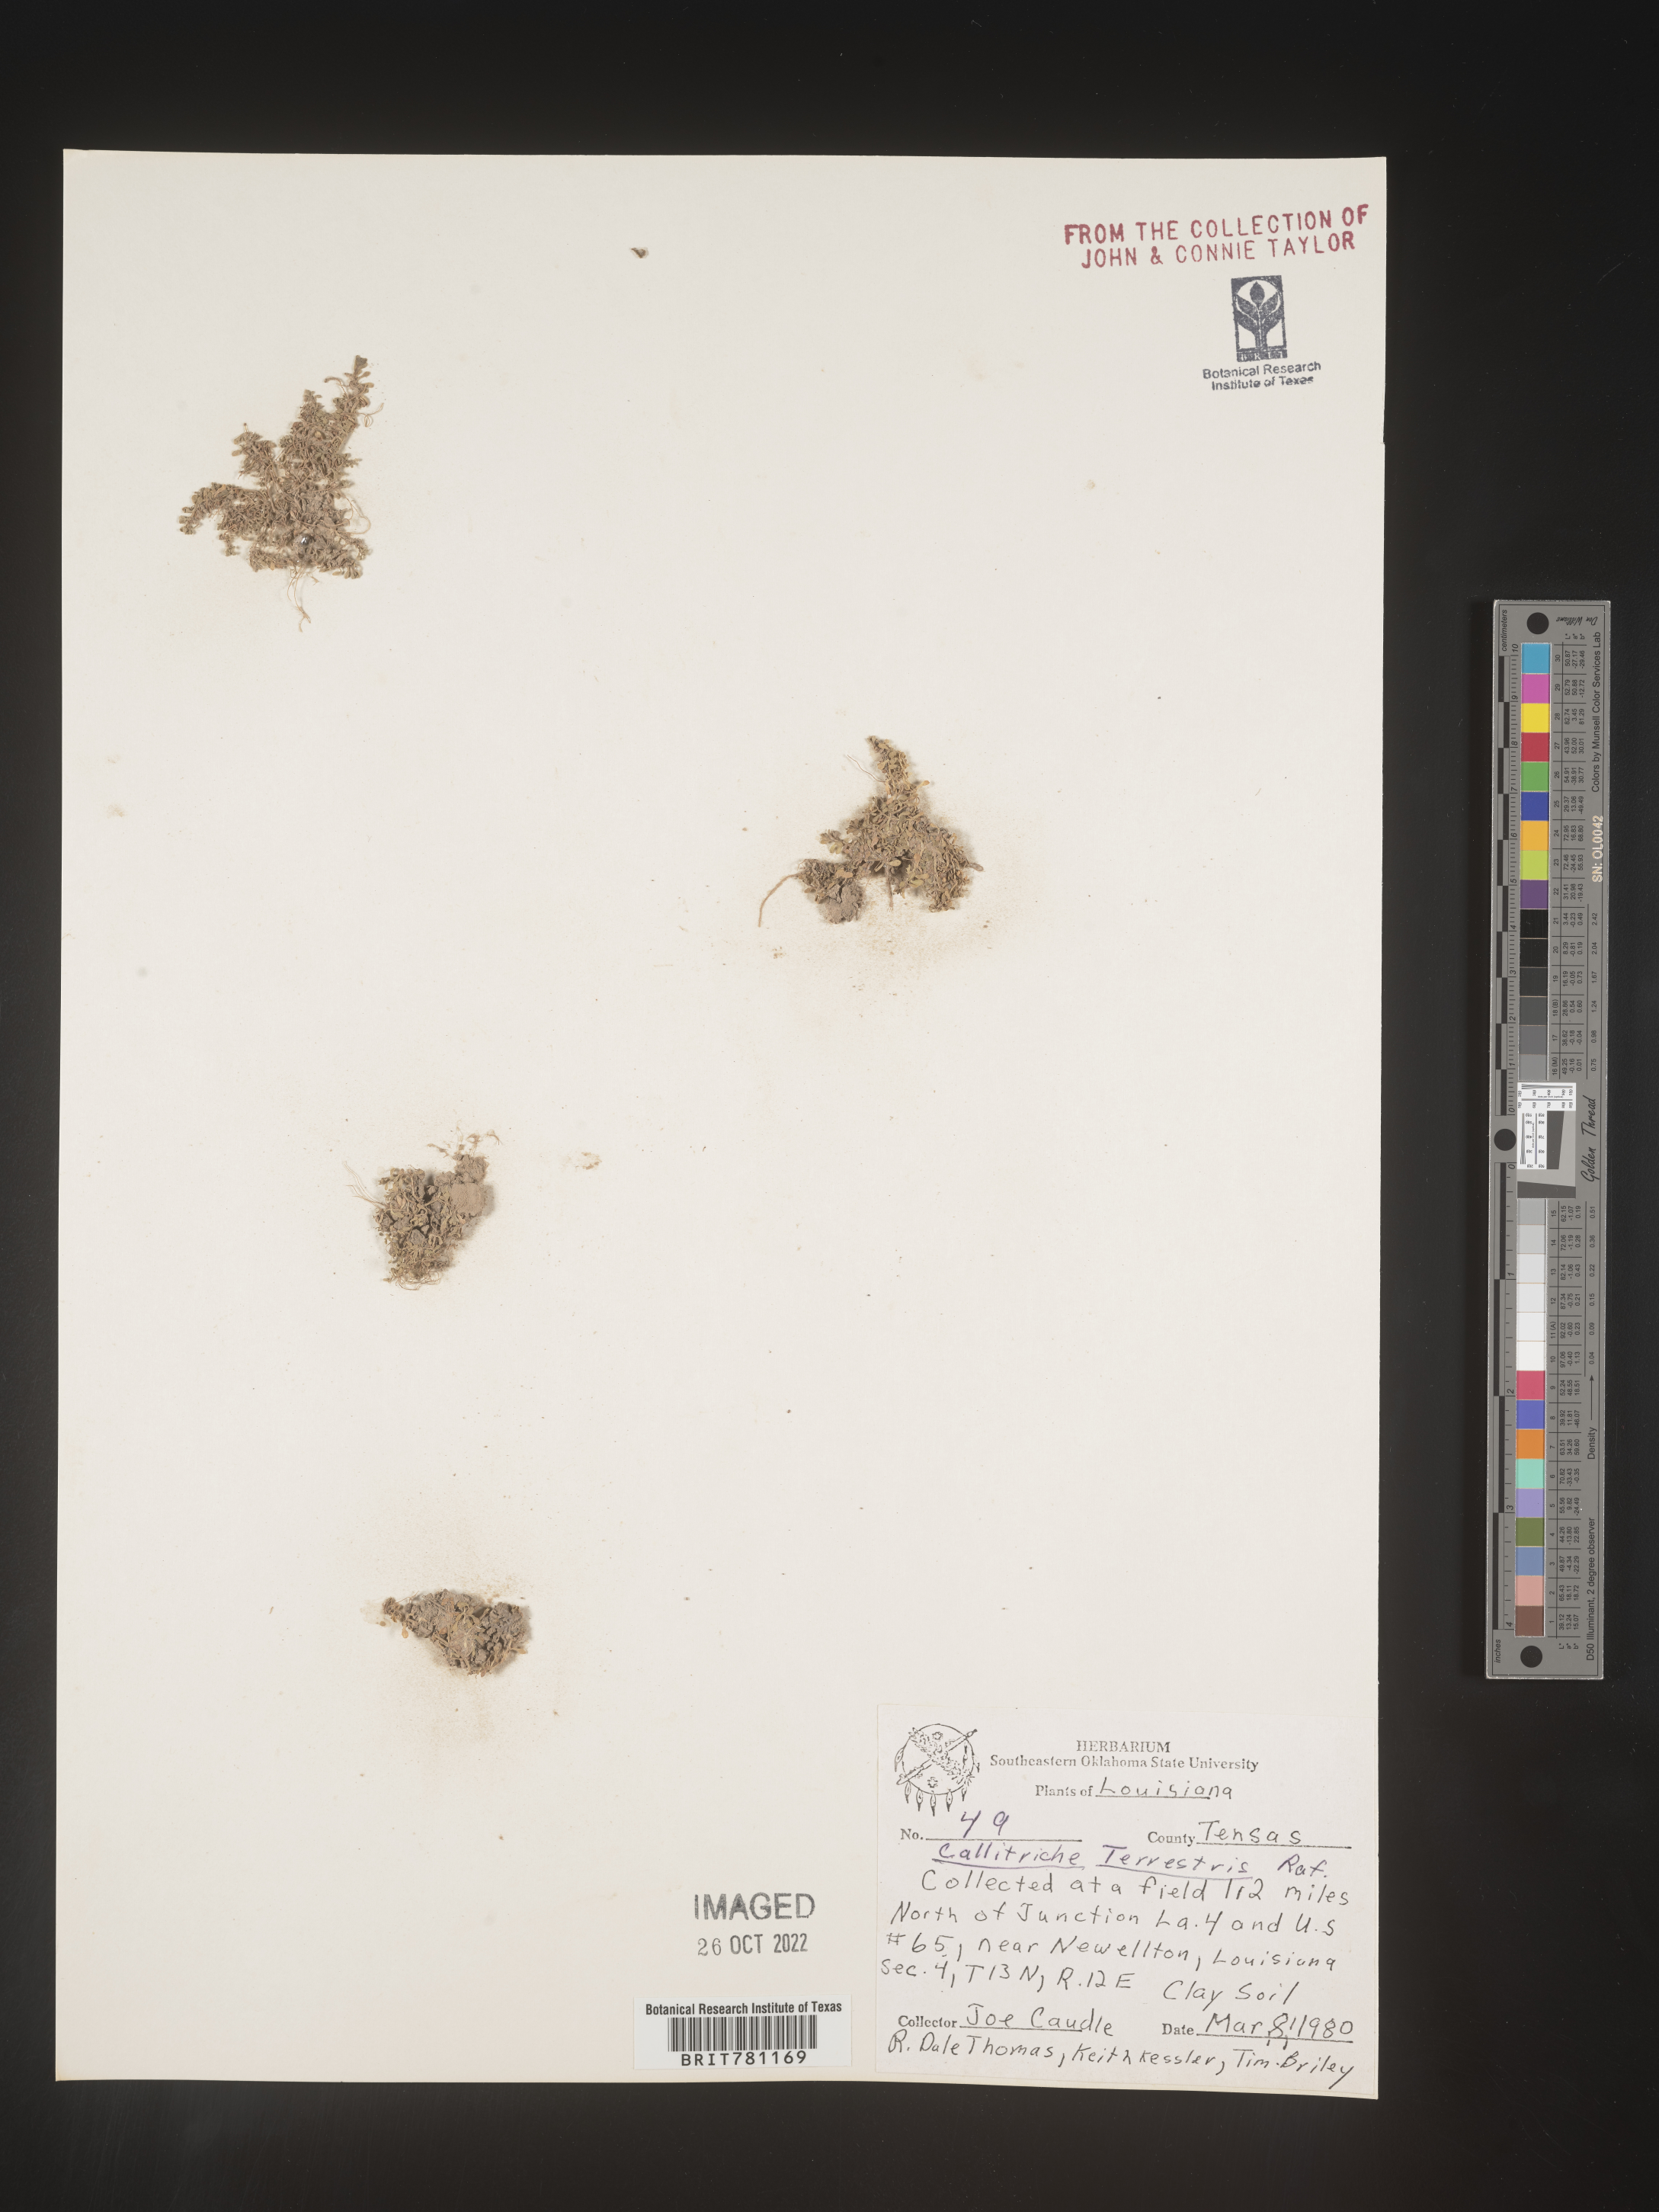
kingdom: Plantae
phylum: Tracheophyta
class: Magnoliopsida
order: Lamiales
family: Plantaginaceae
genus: Callitriche
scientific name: Callitriche
